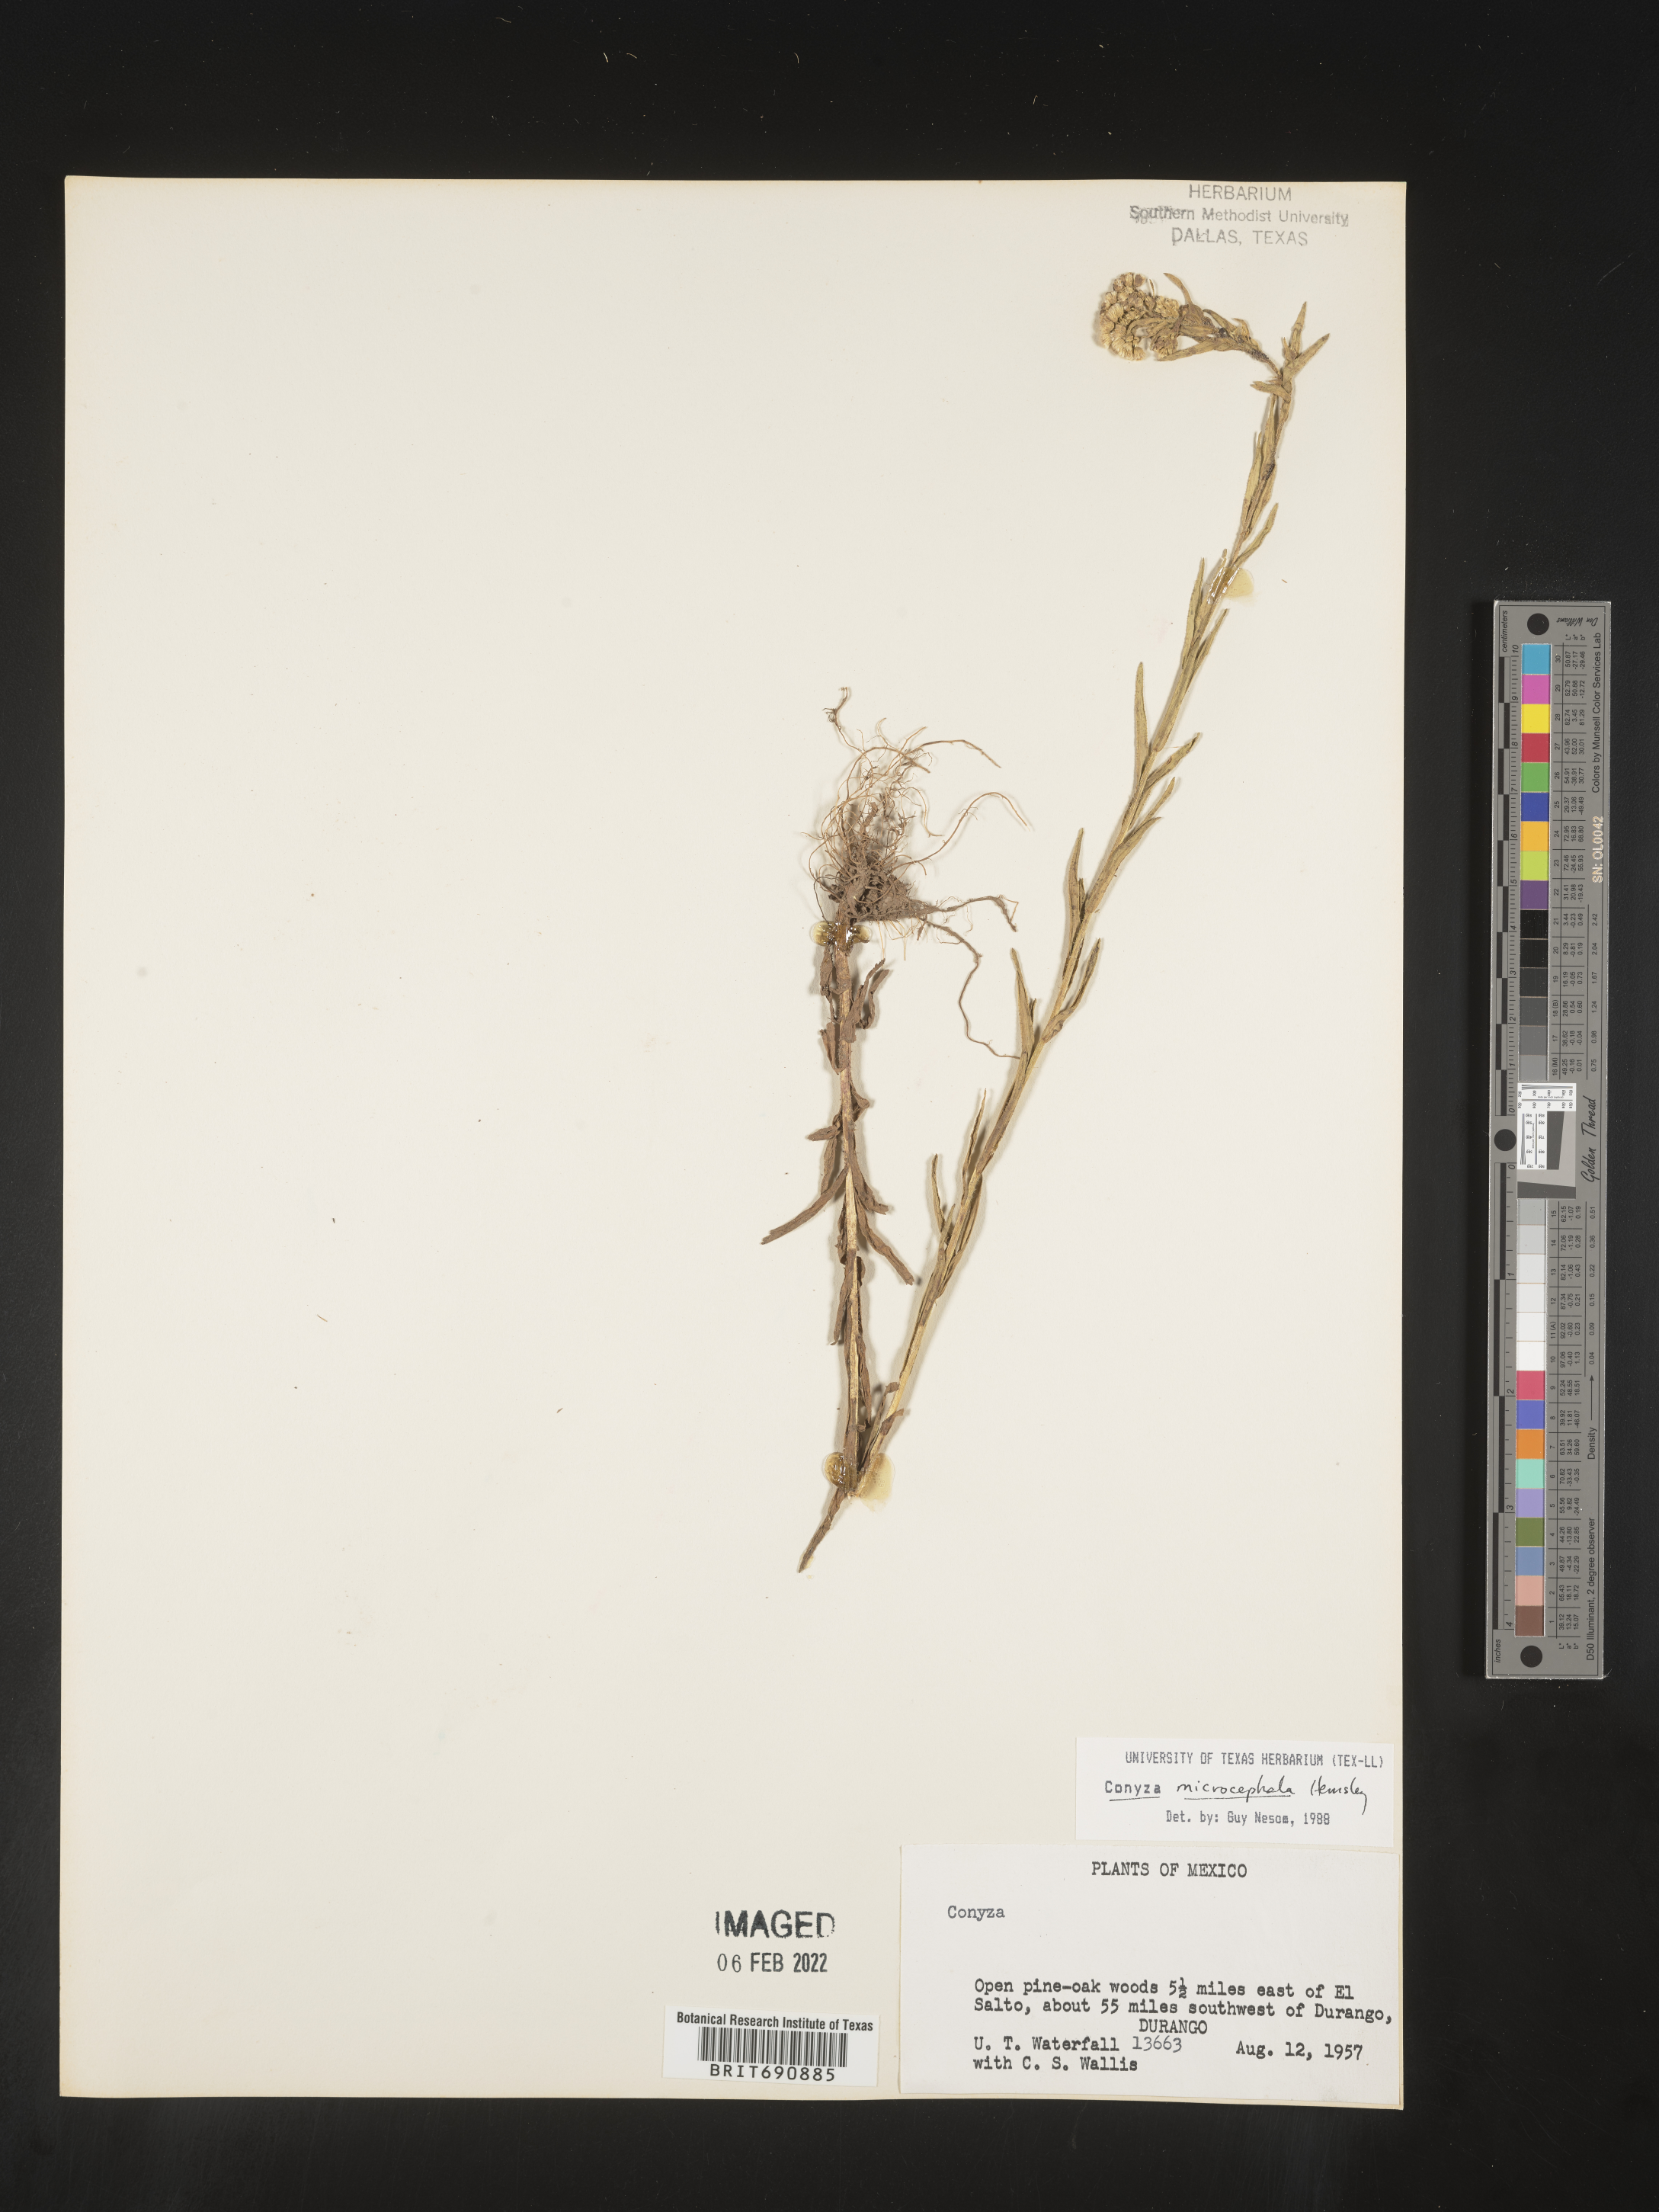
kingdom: Plantae
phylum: Tracheophyta
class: Magnoliopsida
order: Asterales
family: Asteraceae
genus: Erigeron
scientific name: Erigeron columnaris
